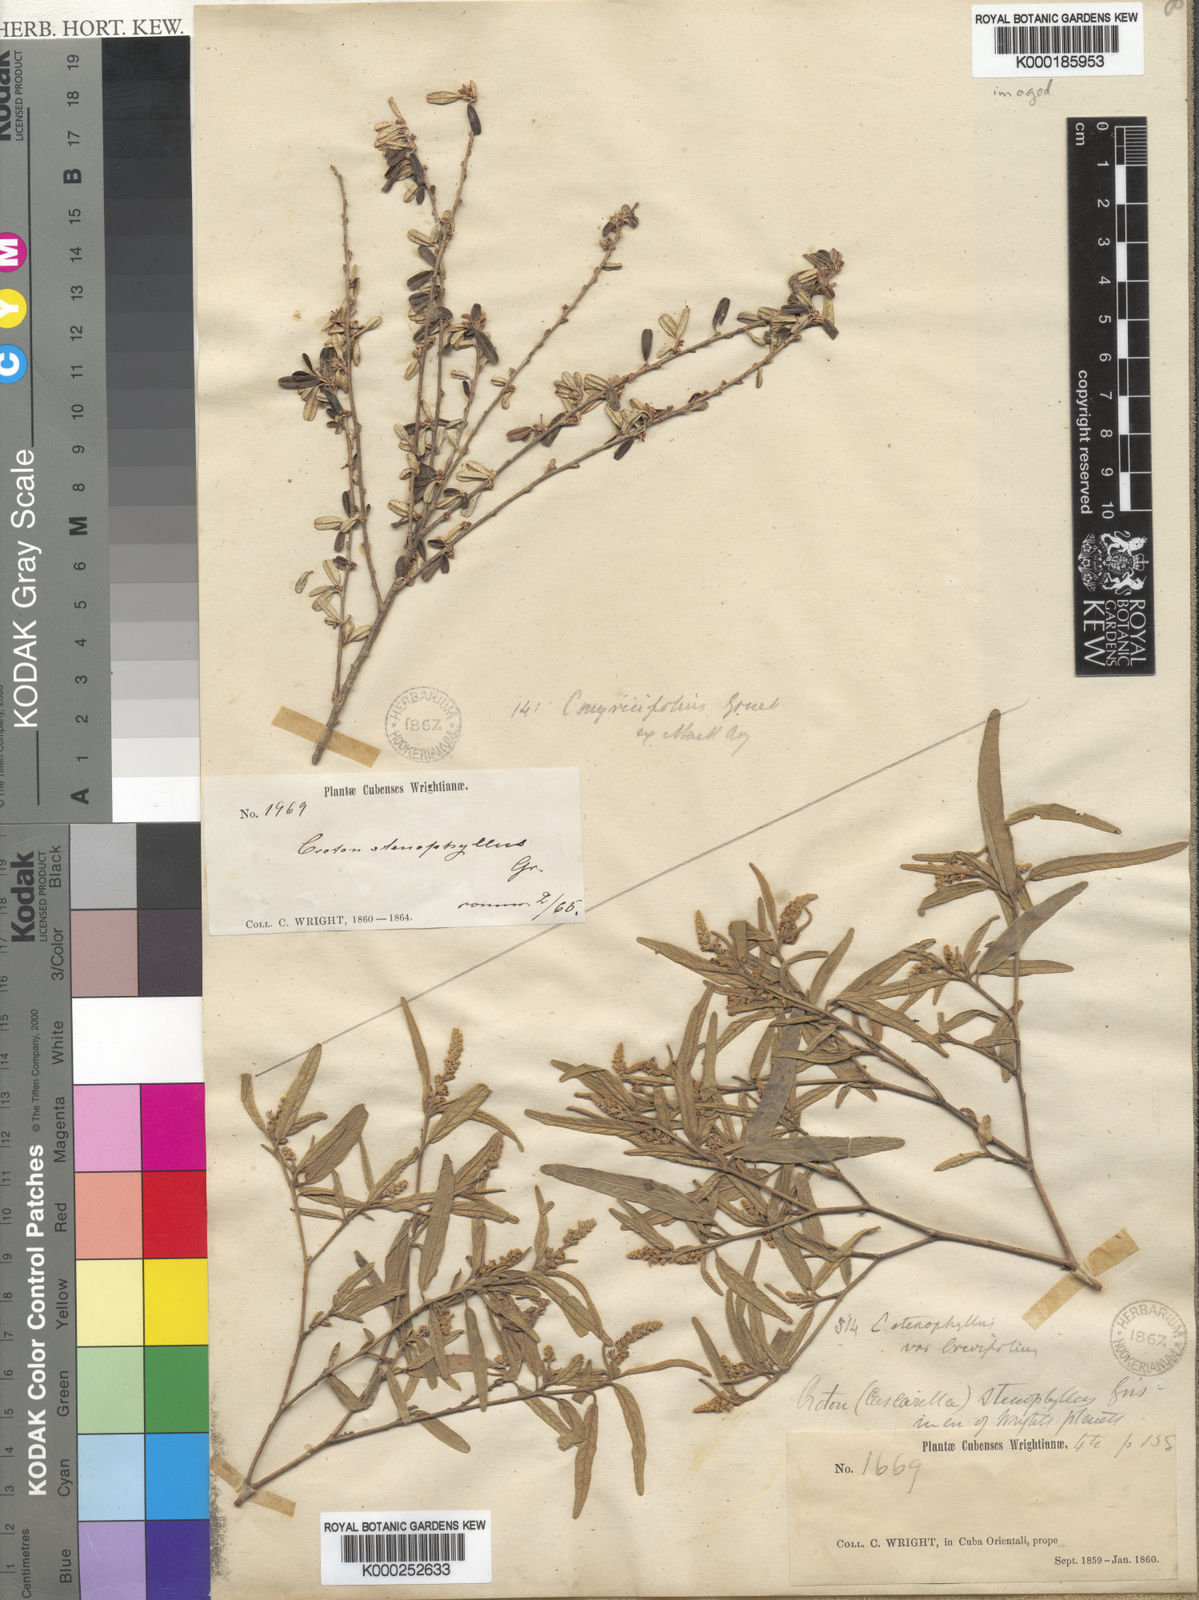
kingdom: Plantae
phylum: Tracheophyta
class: Magnoliopsida
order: Malpighiales
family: Euphorbiaceae
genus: Croton
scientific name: Croton stenophyllus
